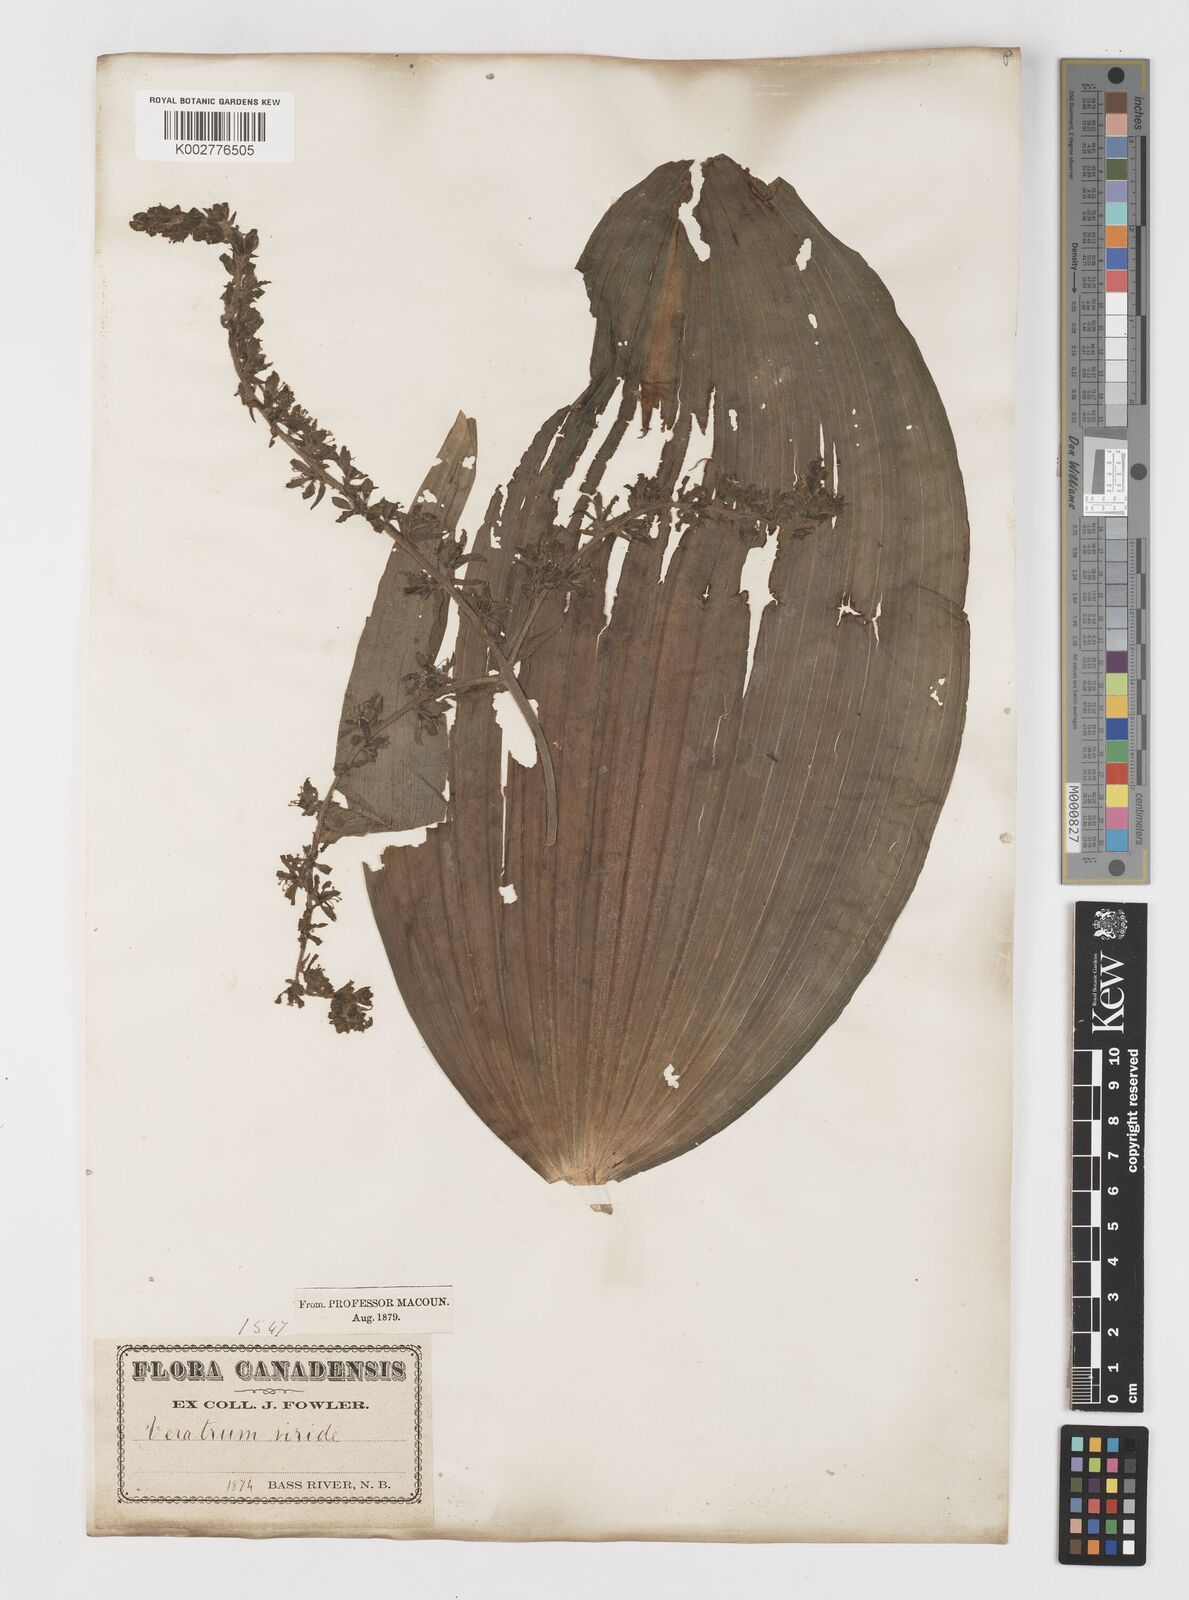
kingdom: Plantae
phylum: Tracheophyta
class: Liliopsida
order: Liliales
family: Melanthiaceae
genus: Veratrum
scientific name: Veratrum viride
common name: American false hellebore
